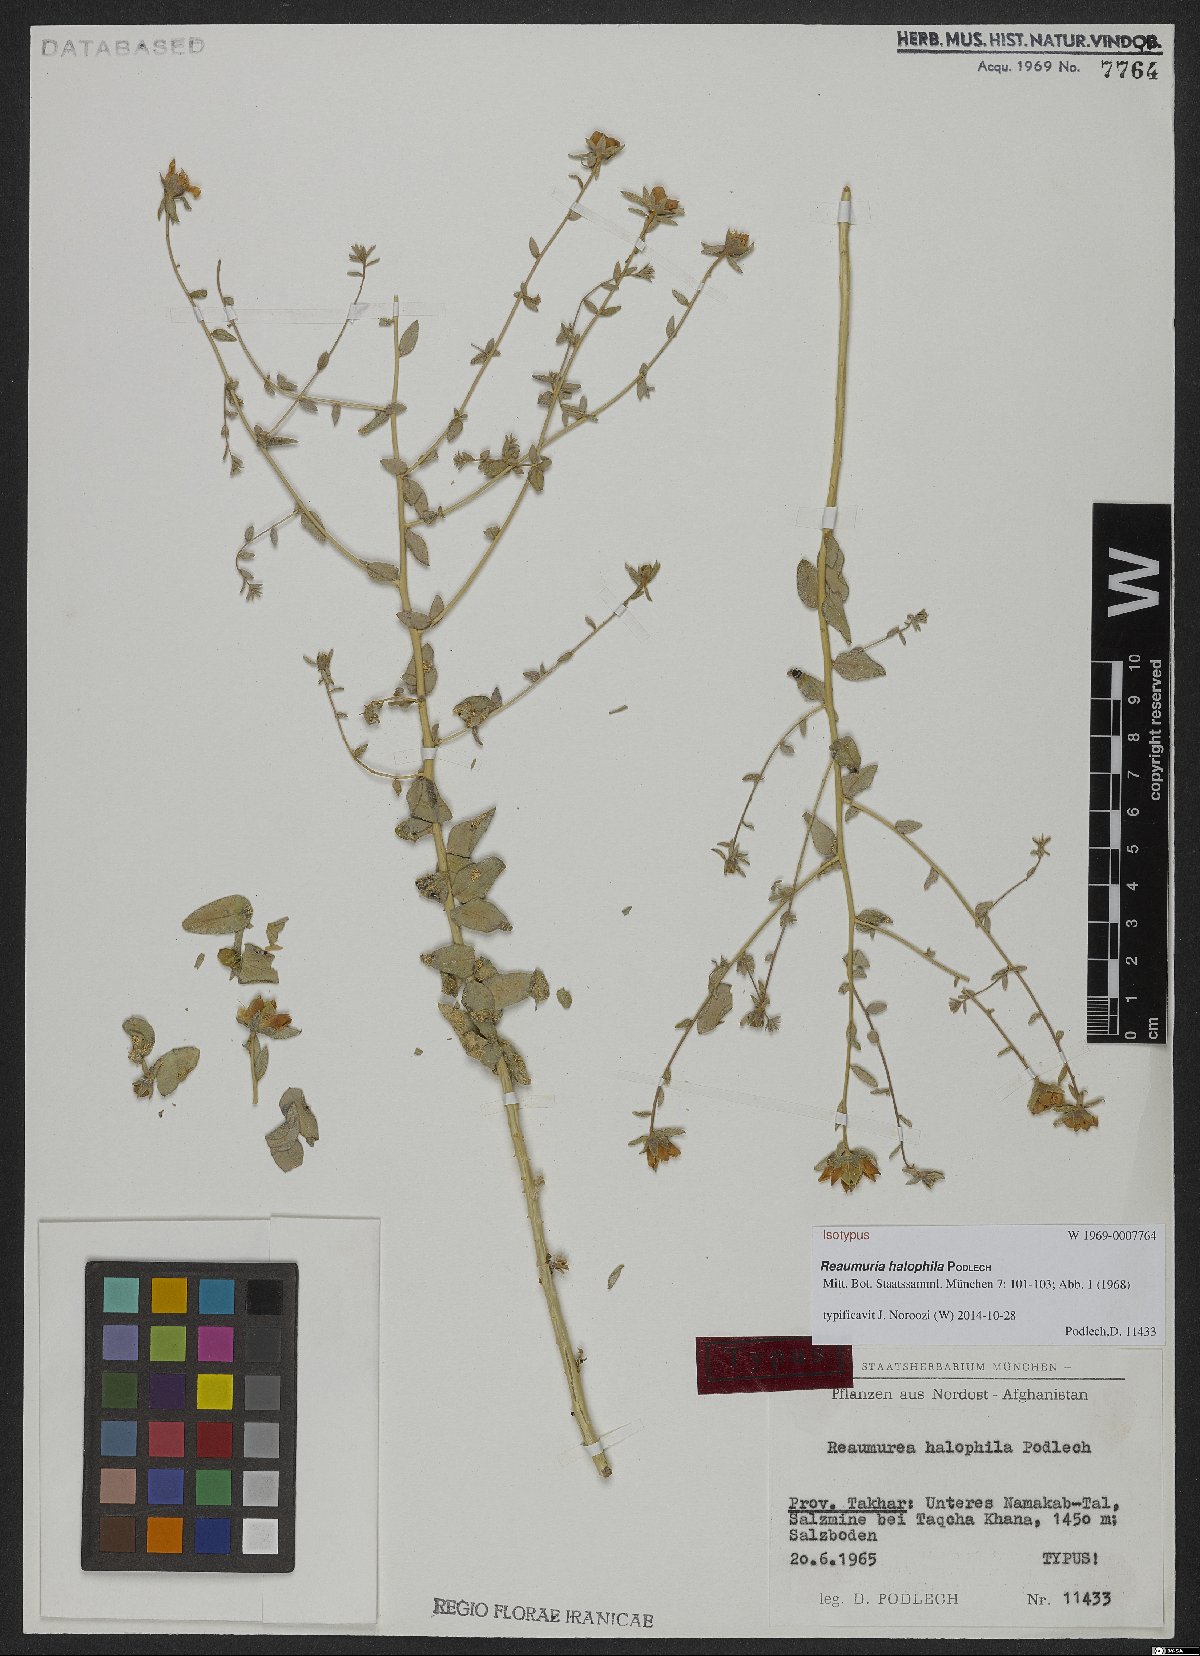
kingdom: Plantae
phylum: Tracheophyta
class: Magnoliopsida
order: Caryophyllales
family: Tamaricaceae
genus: Reaumuria
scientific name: Reaumuria halophila
